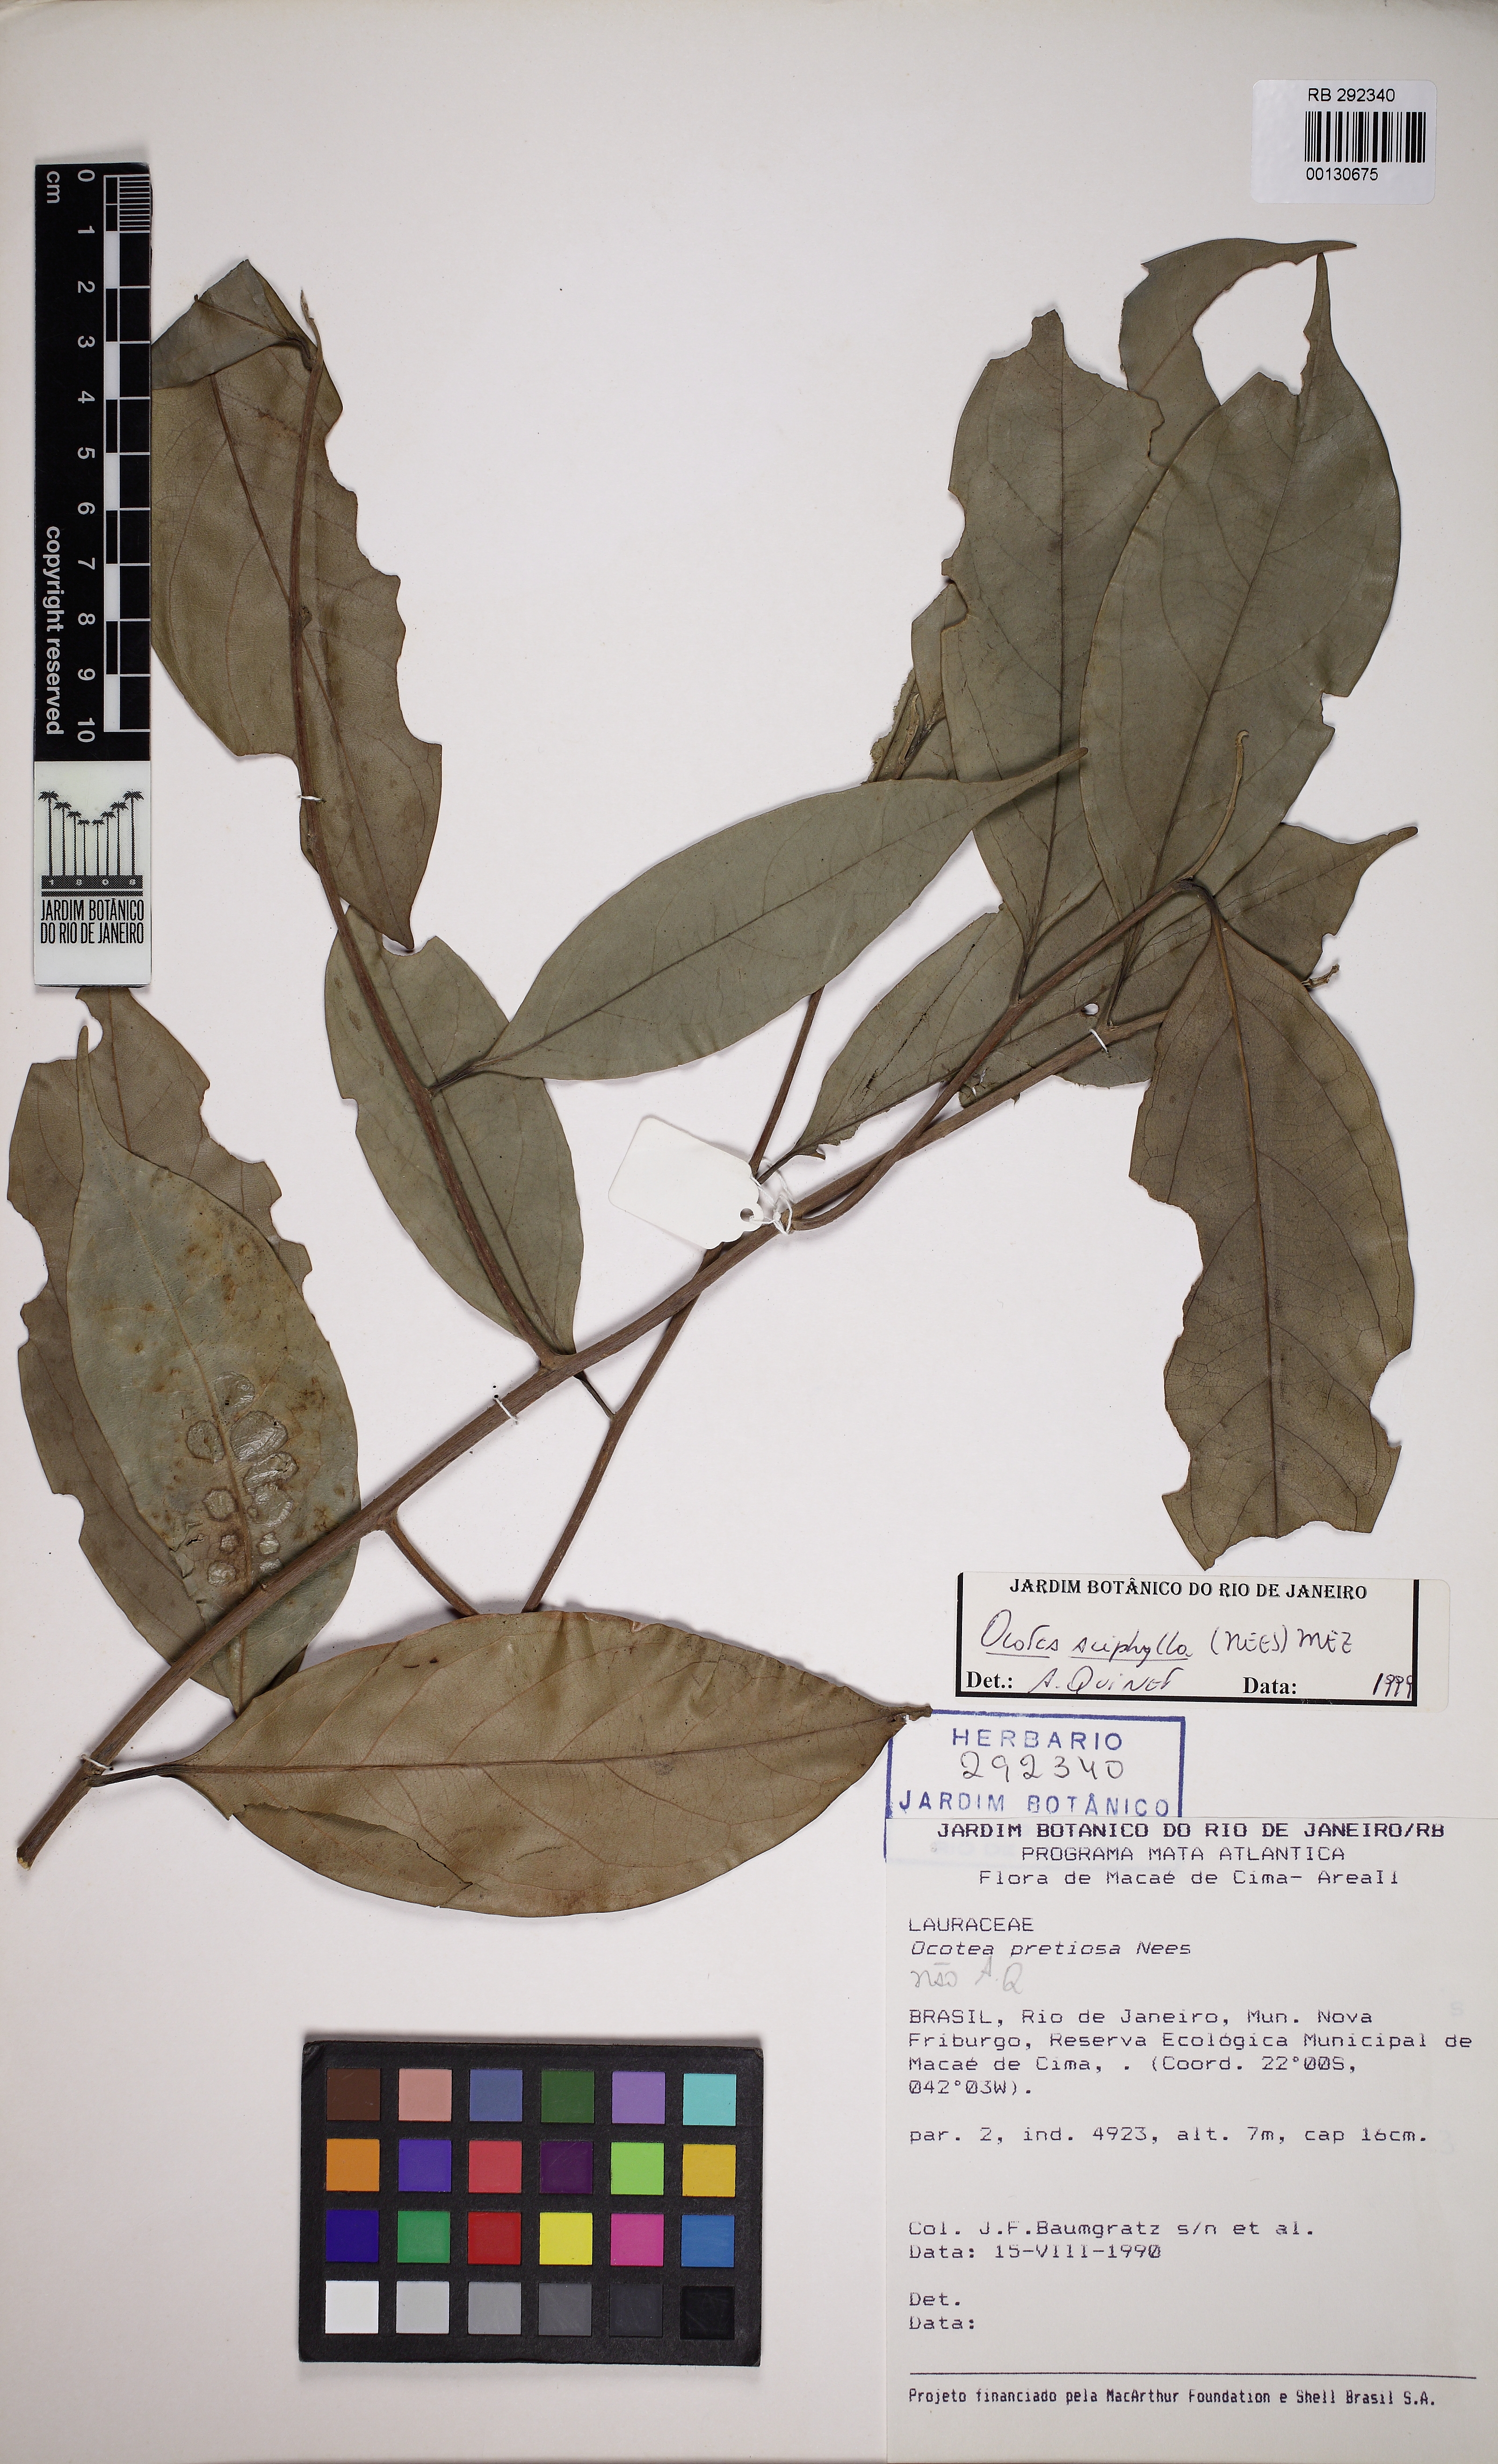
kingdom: Plantae
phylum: Tracheophyta
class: Magnoliopsida
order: Laurales
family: Lauraceae
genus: Ocotea
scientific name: Ocotea aciphylla
